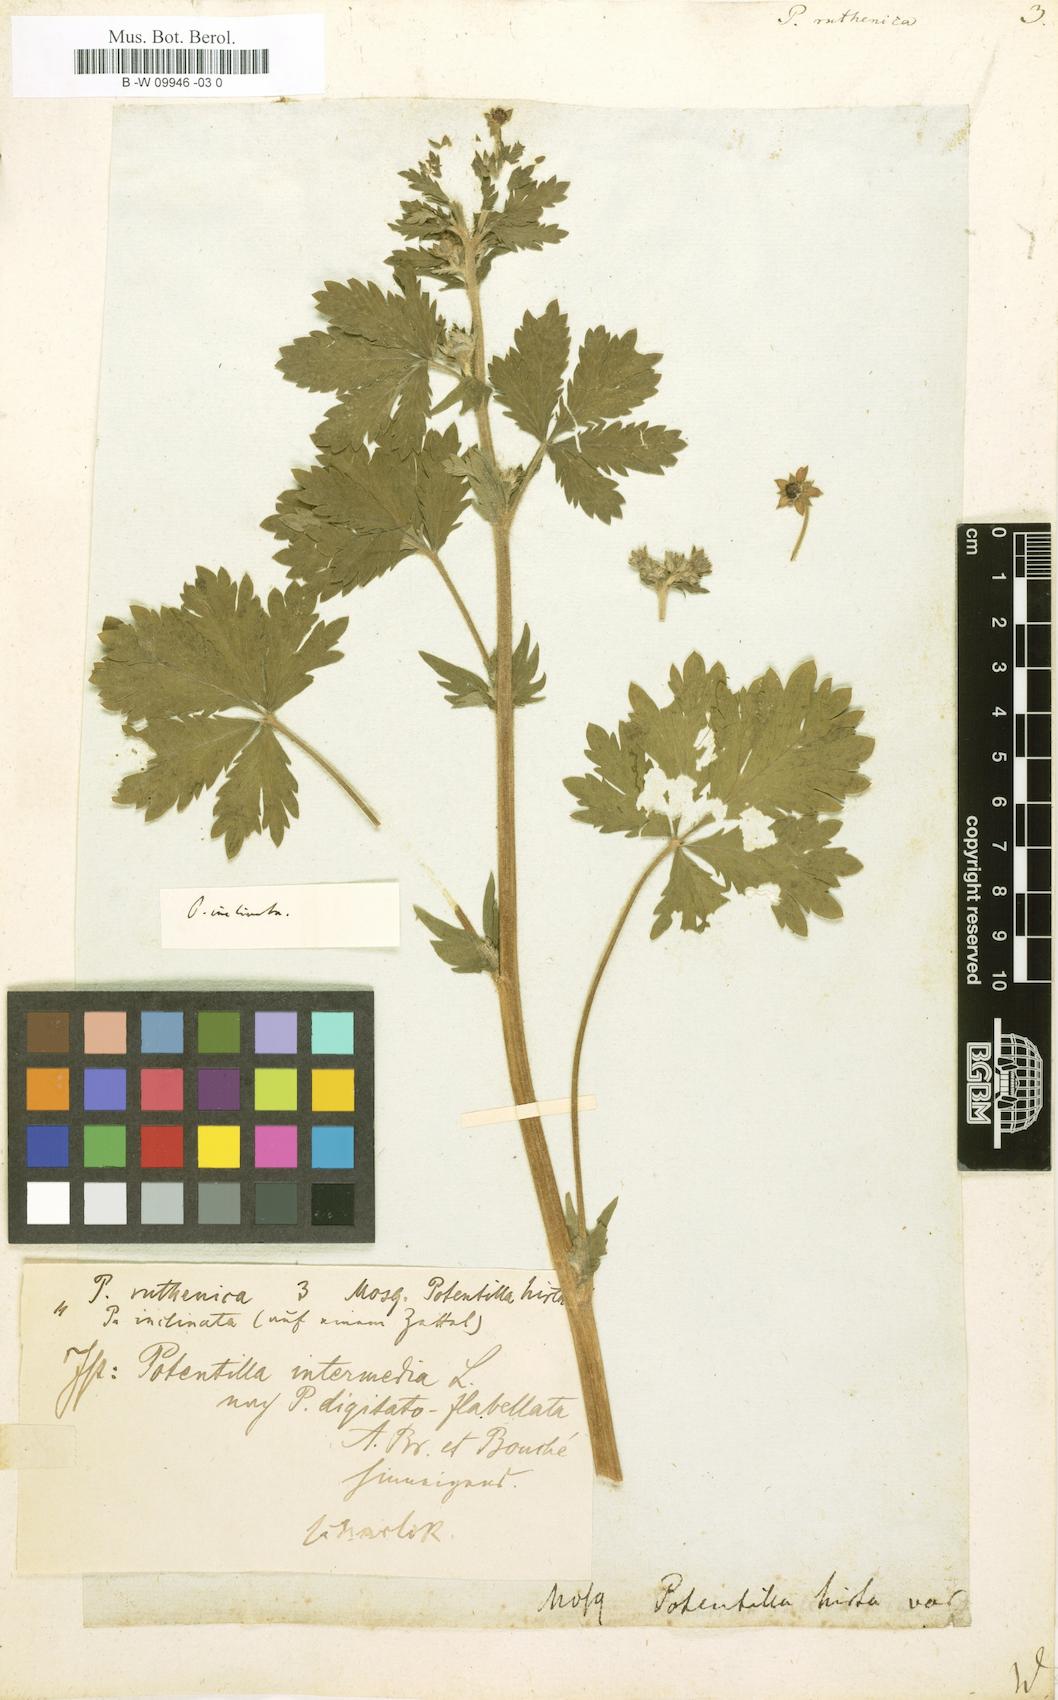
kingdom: Plantae
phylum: Tracheophyta
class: Magnoliopsida
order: Rosales
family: Rosaceae
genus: Potentilla
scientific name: Potentilla
